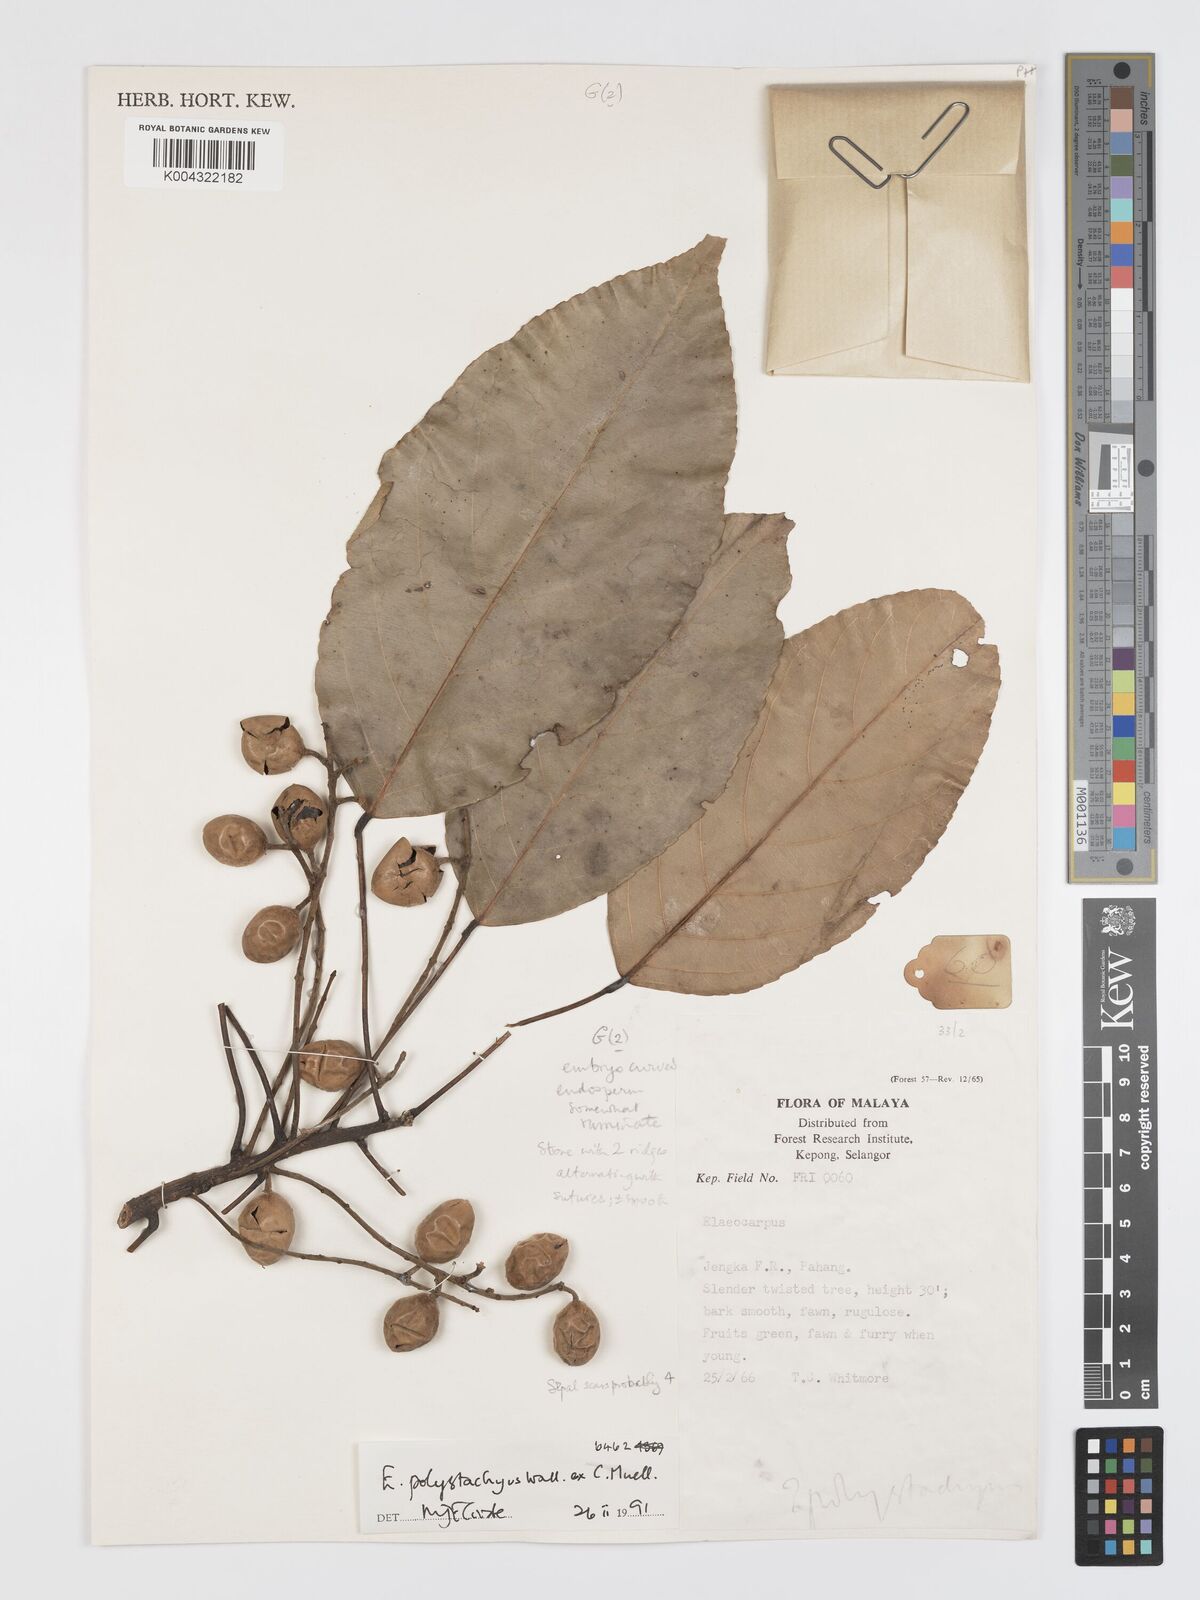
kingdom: Plantae
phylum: Tracheophyta
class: Magnoliopsida
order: Oxalidales
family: Elaeocarpaceae
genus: Elaeocarpus
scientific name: Elaeocarpus polystachyus
